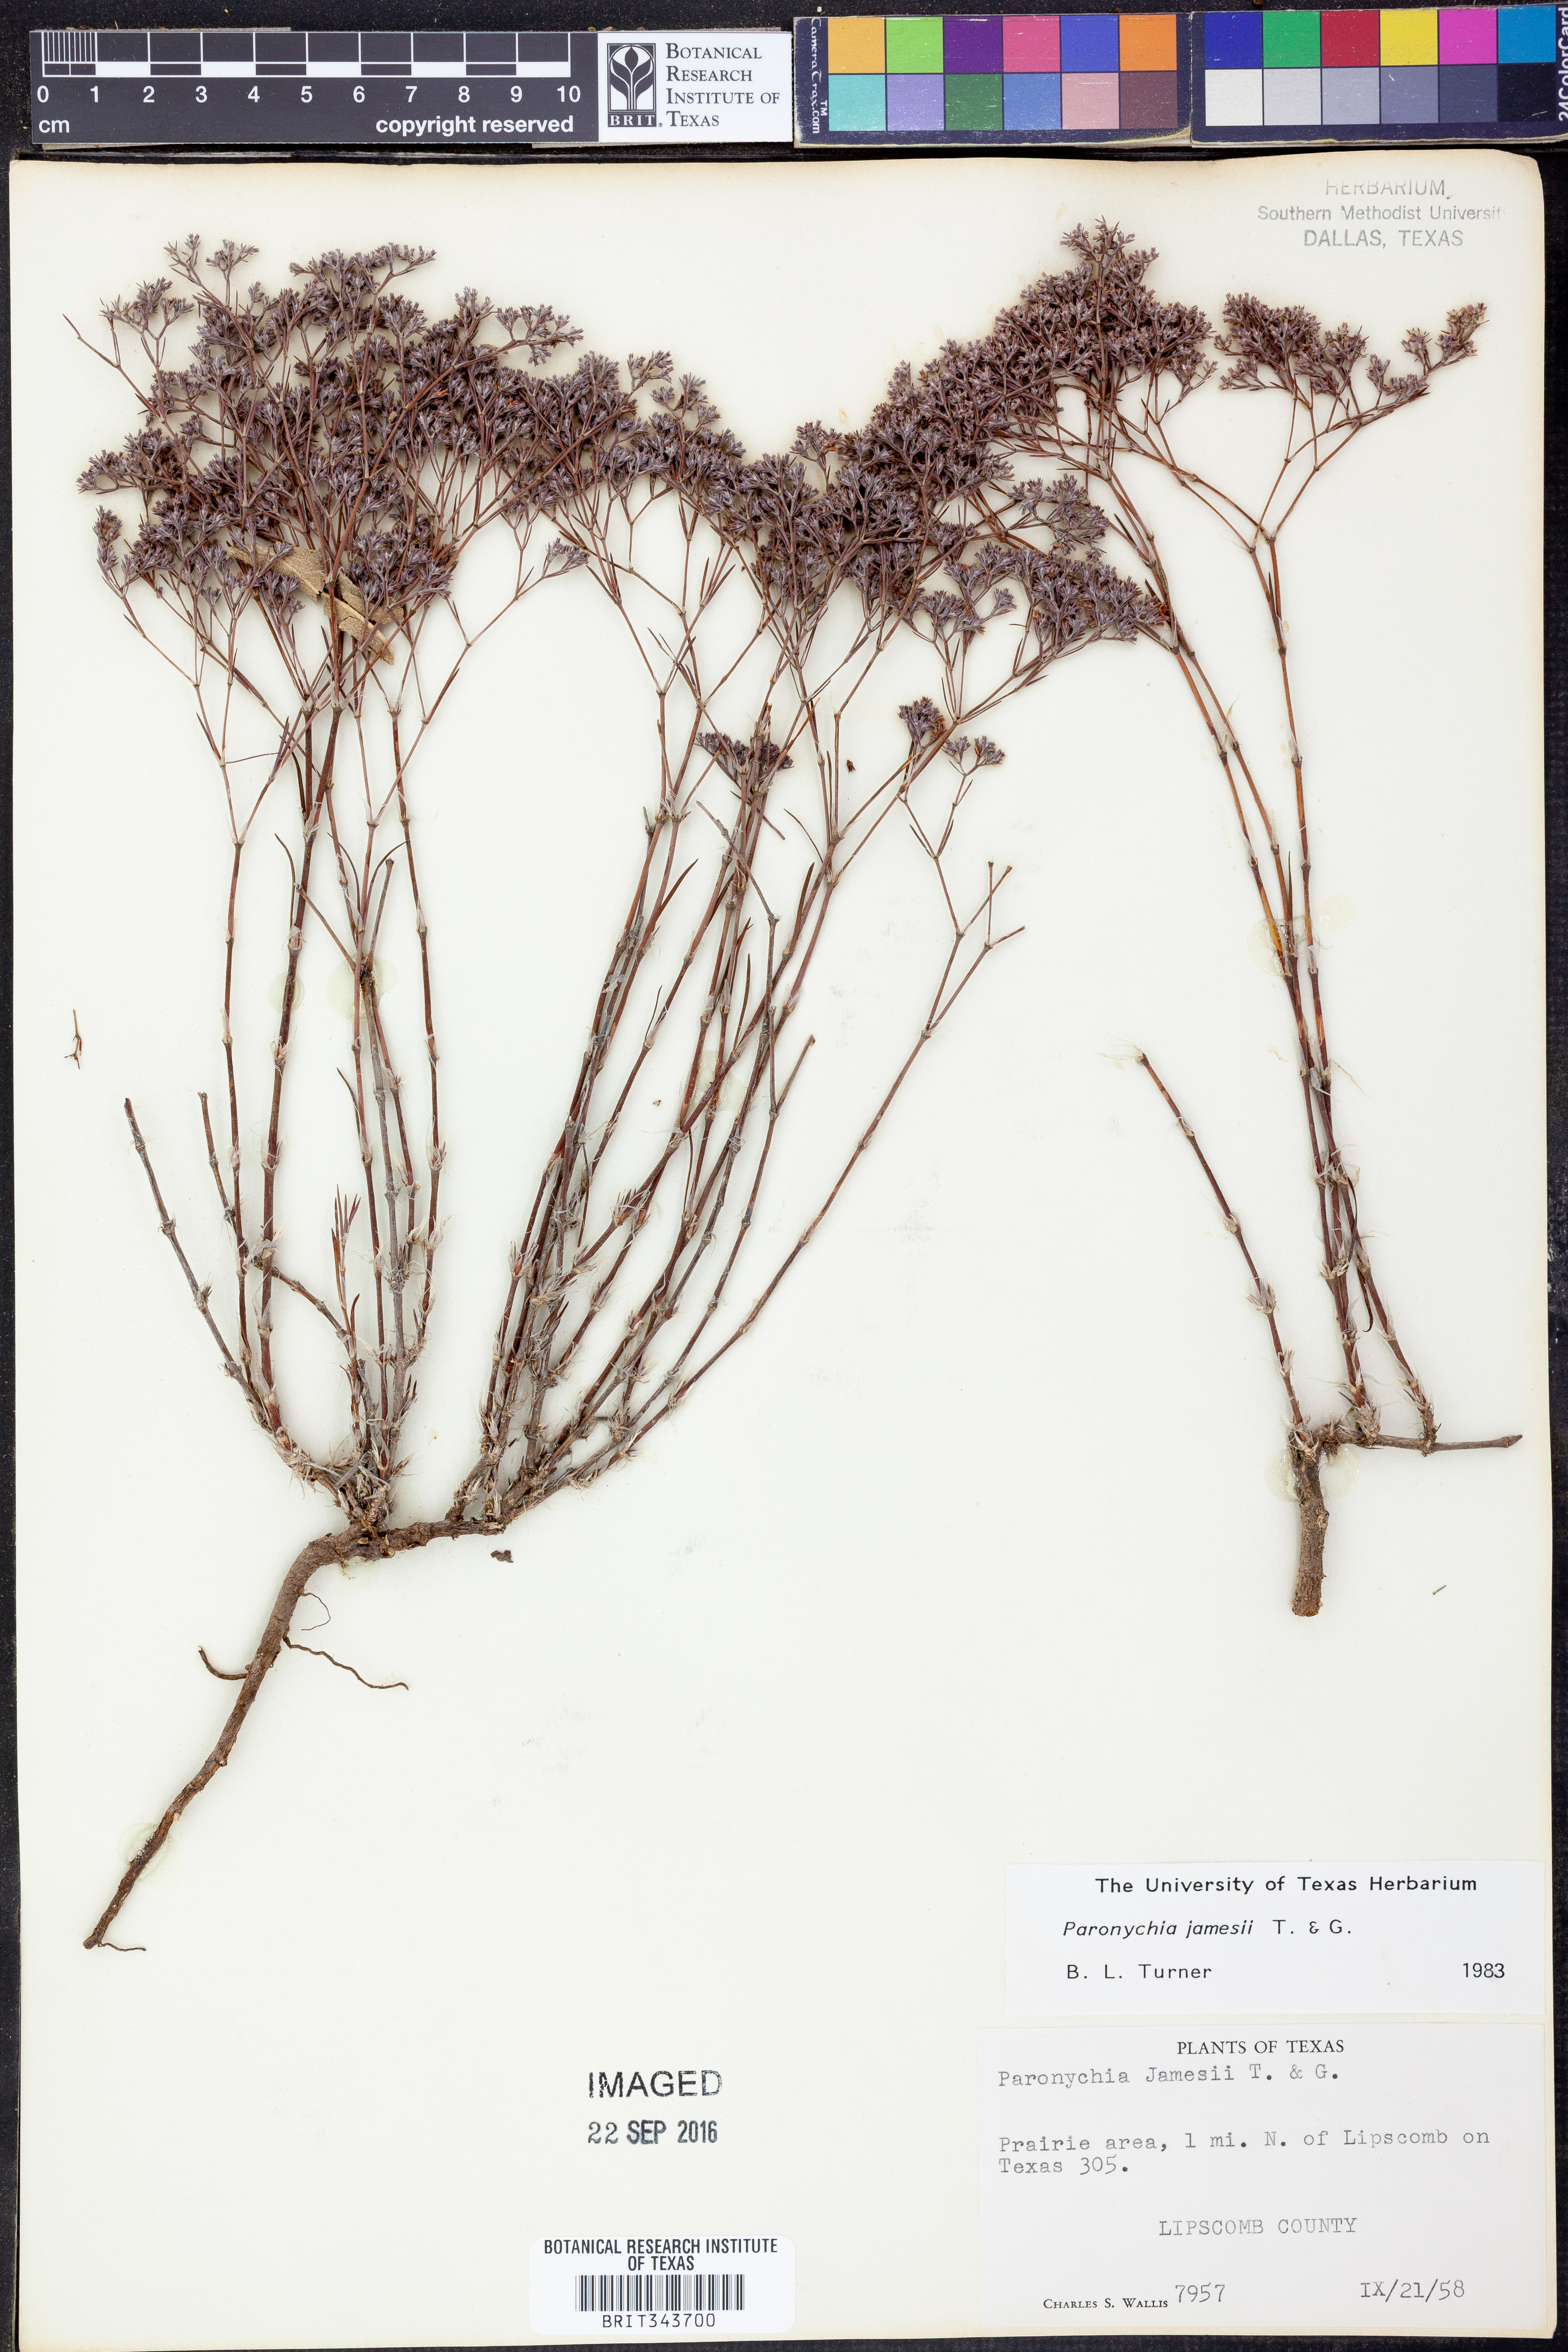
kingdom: Plantae
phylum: Tracheophyta
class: Magnoliopsida
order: Caryophyllales
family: Caryophyllaceae
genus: Paronychia
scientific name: Paronychia jamesii
